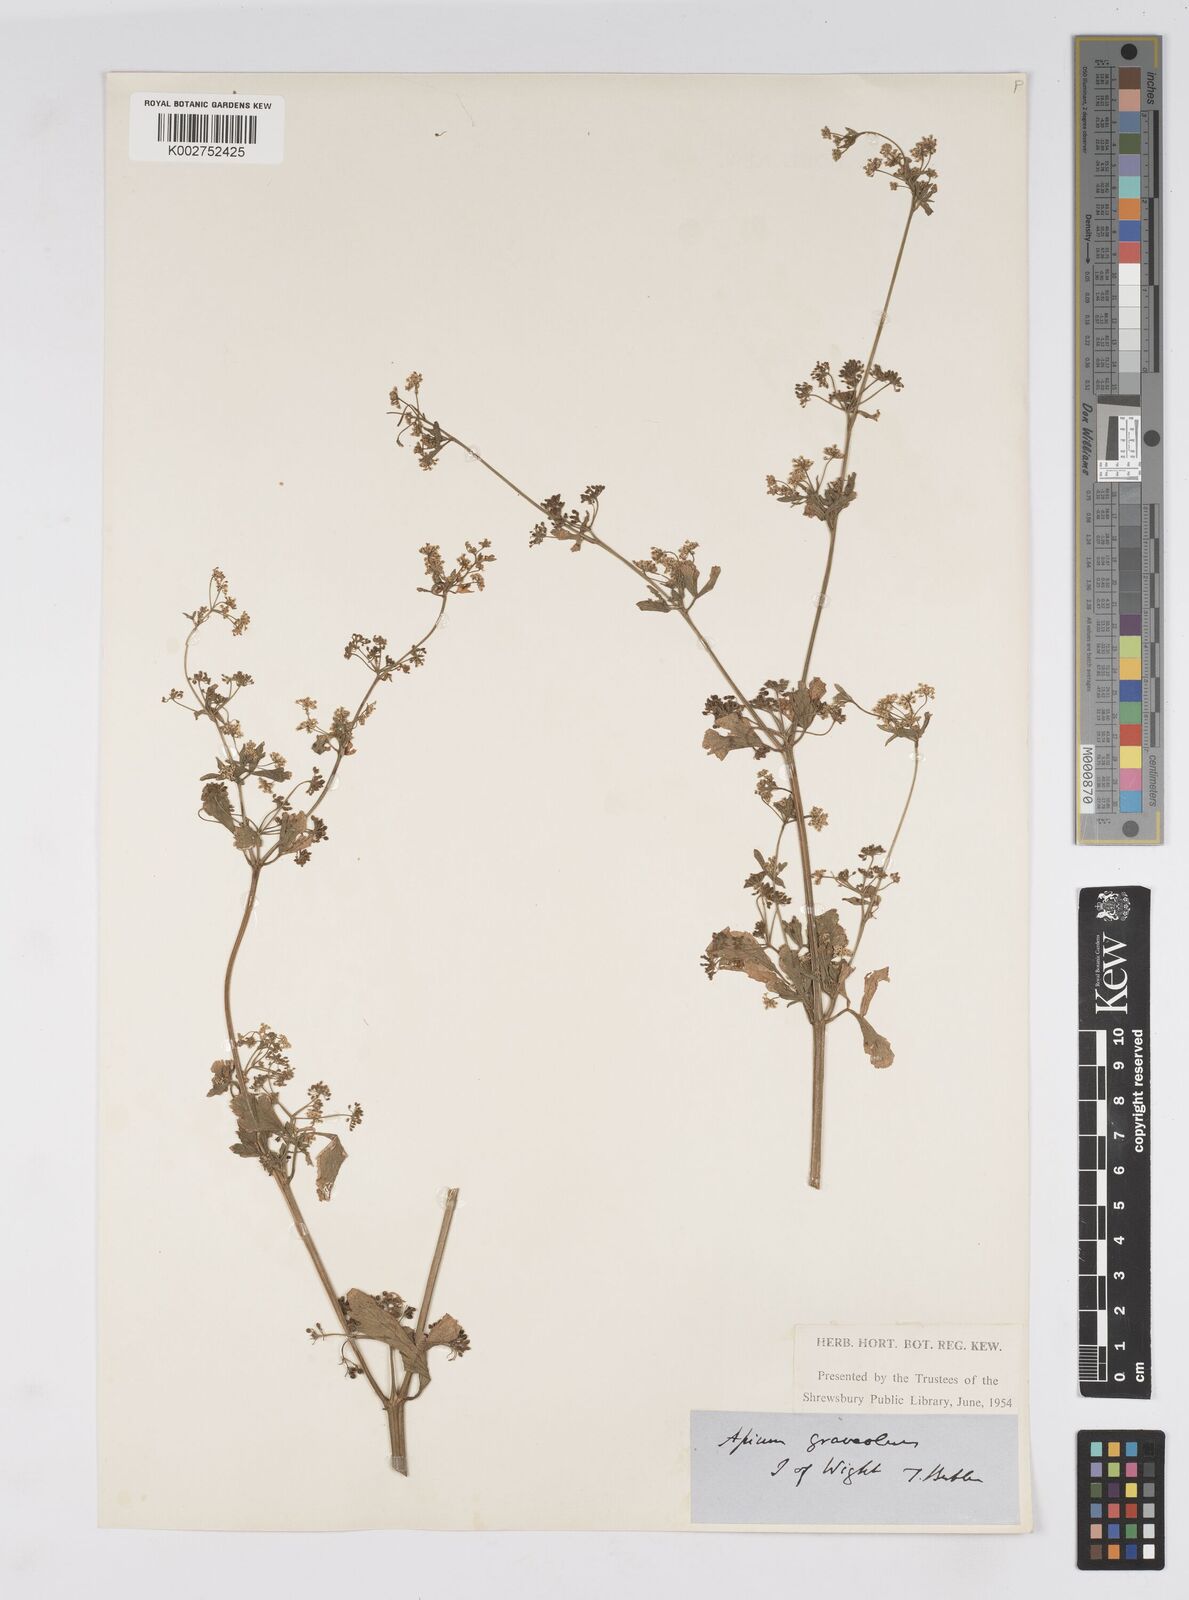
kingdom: Plantae
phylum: Tracheophyta
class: Magnoliopsida
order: Apiales
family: Apiaceae
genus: Apium
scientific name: Apium graveolens
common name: Wild celery
